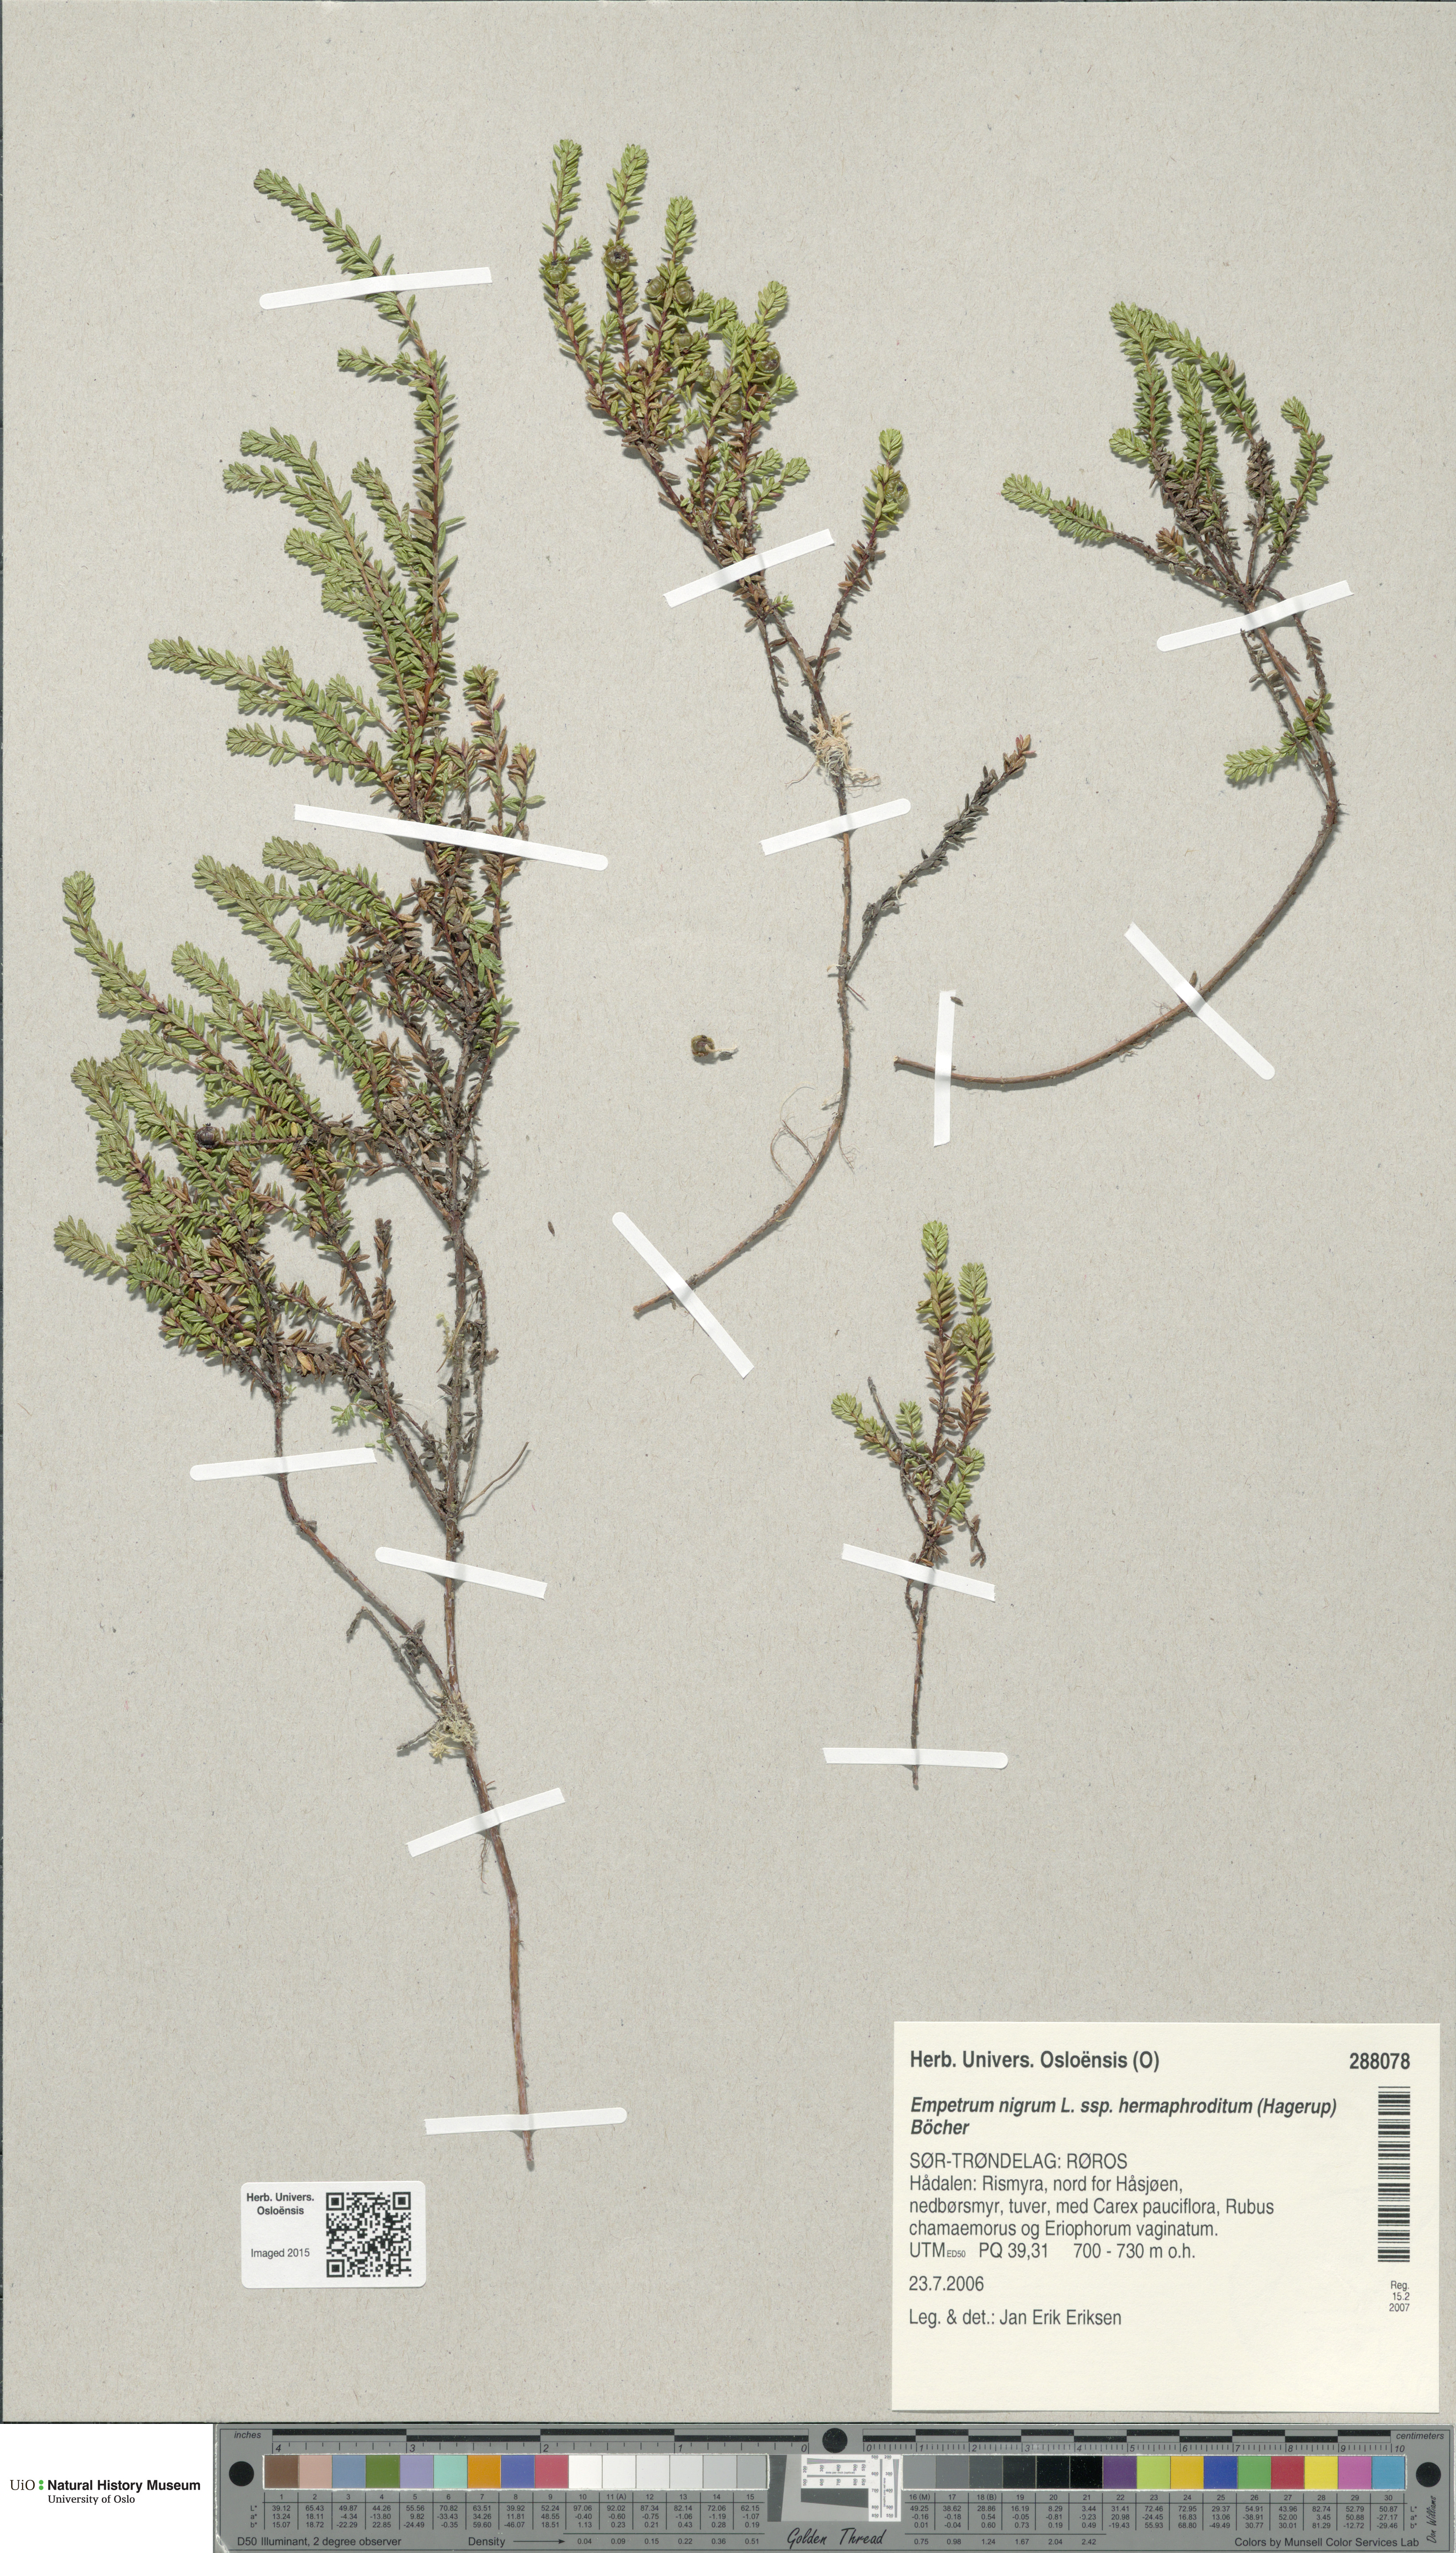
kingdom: Plantae
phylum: Tracheophyta
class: Magnoliopsida
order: Ericales
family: Ericaceae
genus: Empetrum
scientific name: Empetrum hermaphroditum
